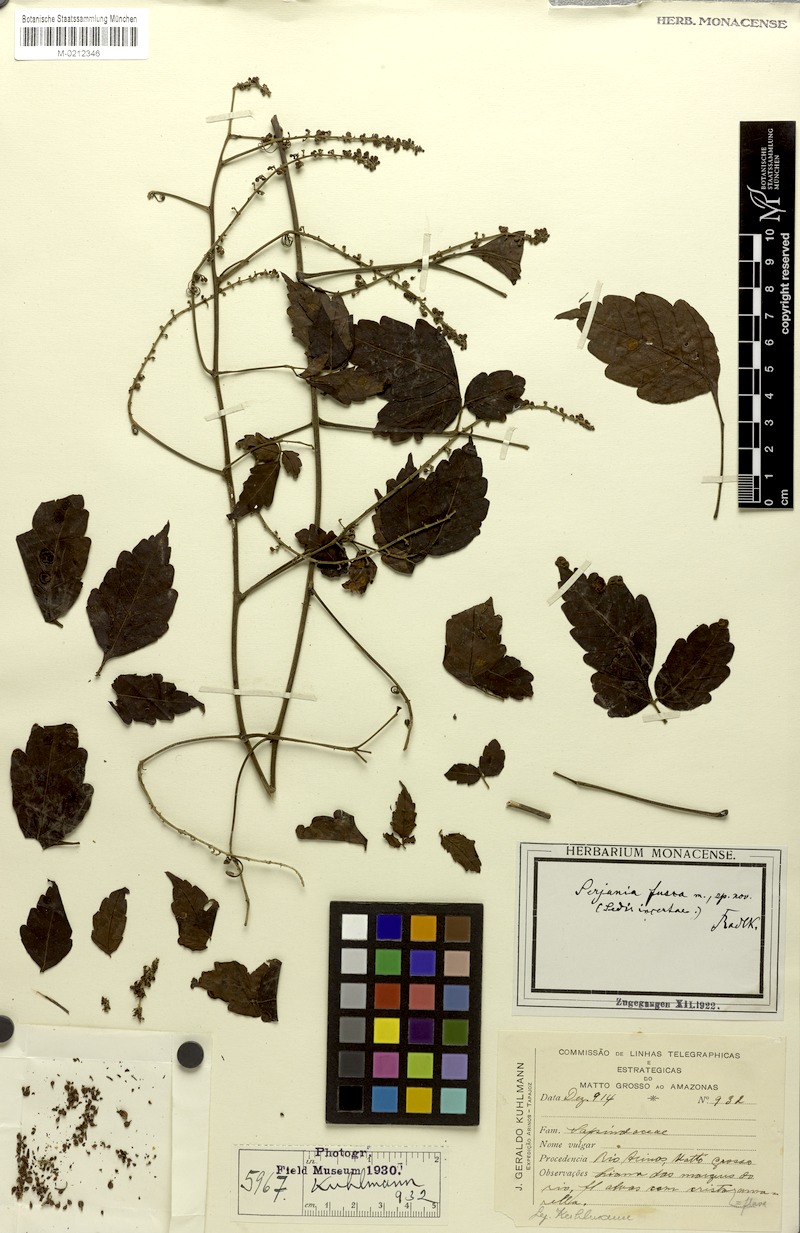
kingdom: Plantae
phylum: Tracheophyta
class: Magnoliopsida
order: Sapindales
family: Sapindaceae
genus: Serjania
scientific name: Serjania fusca
